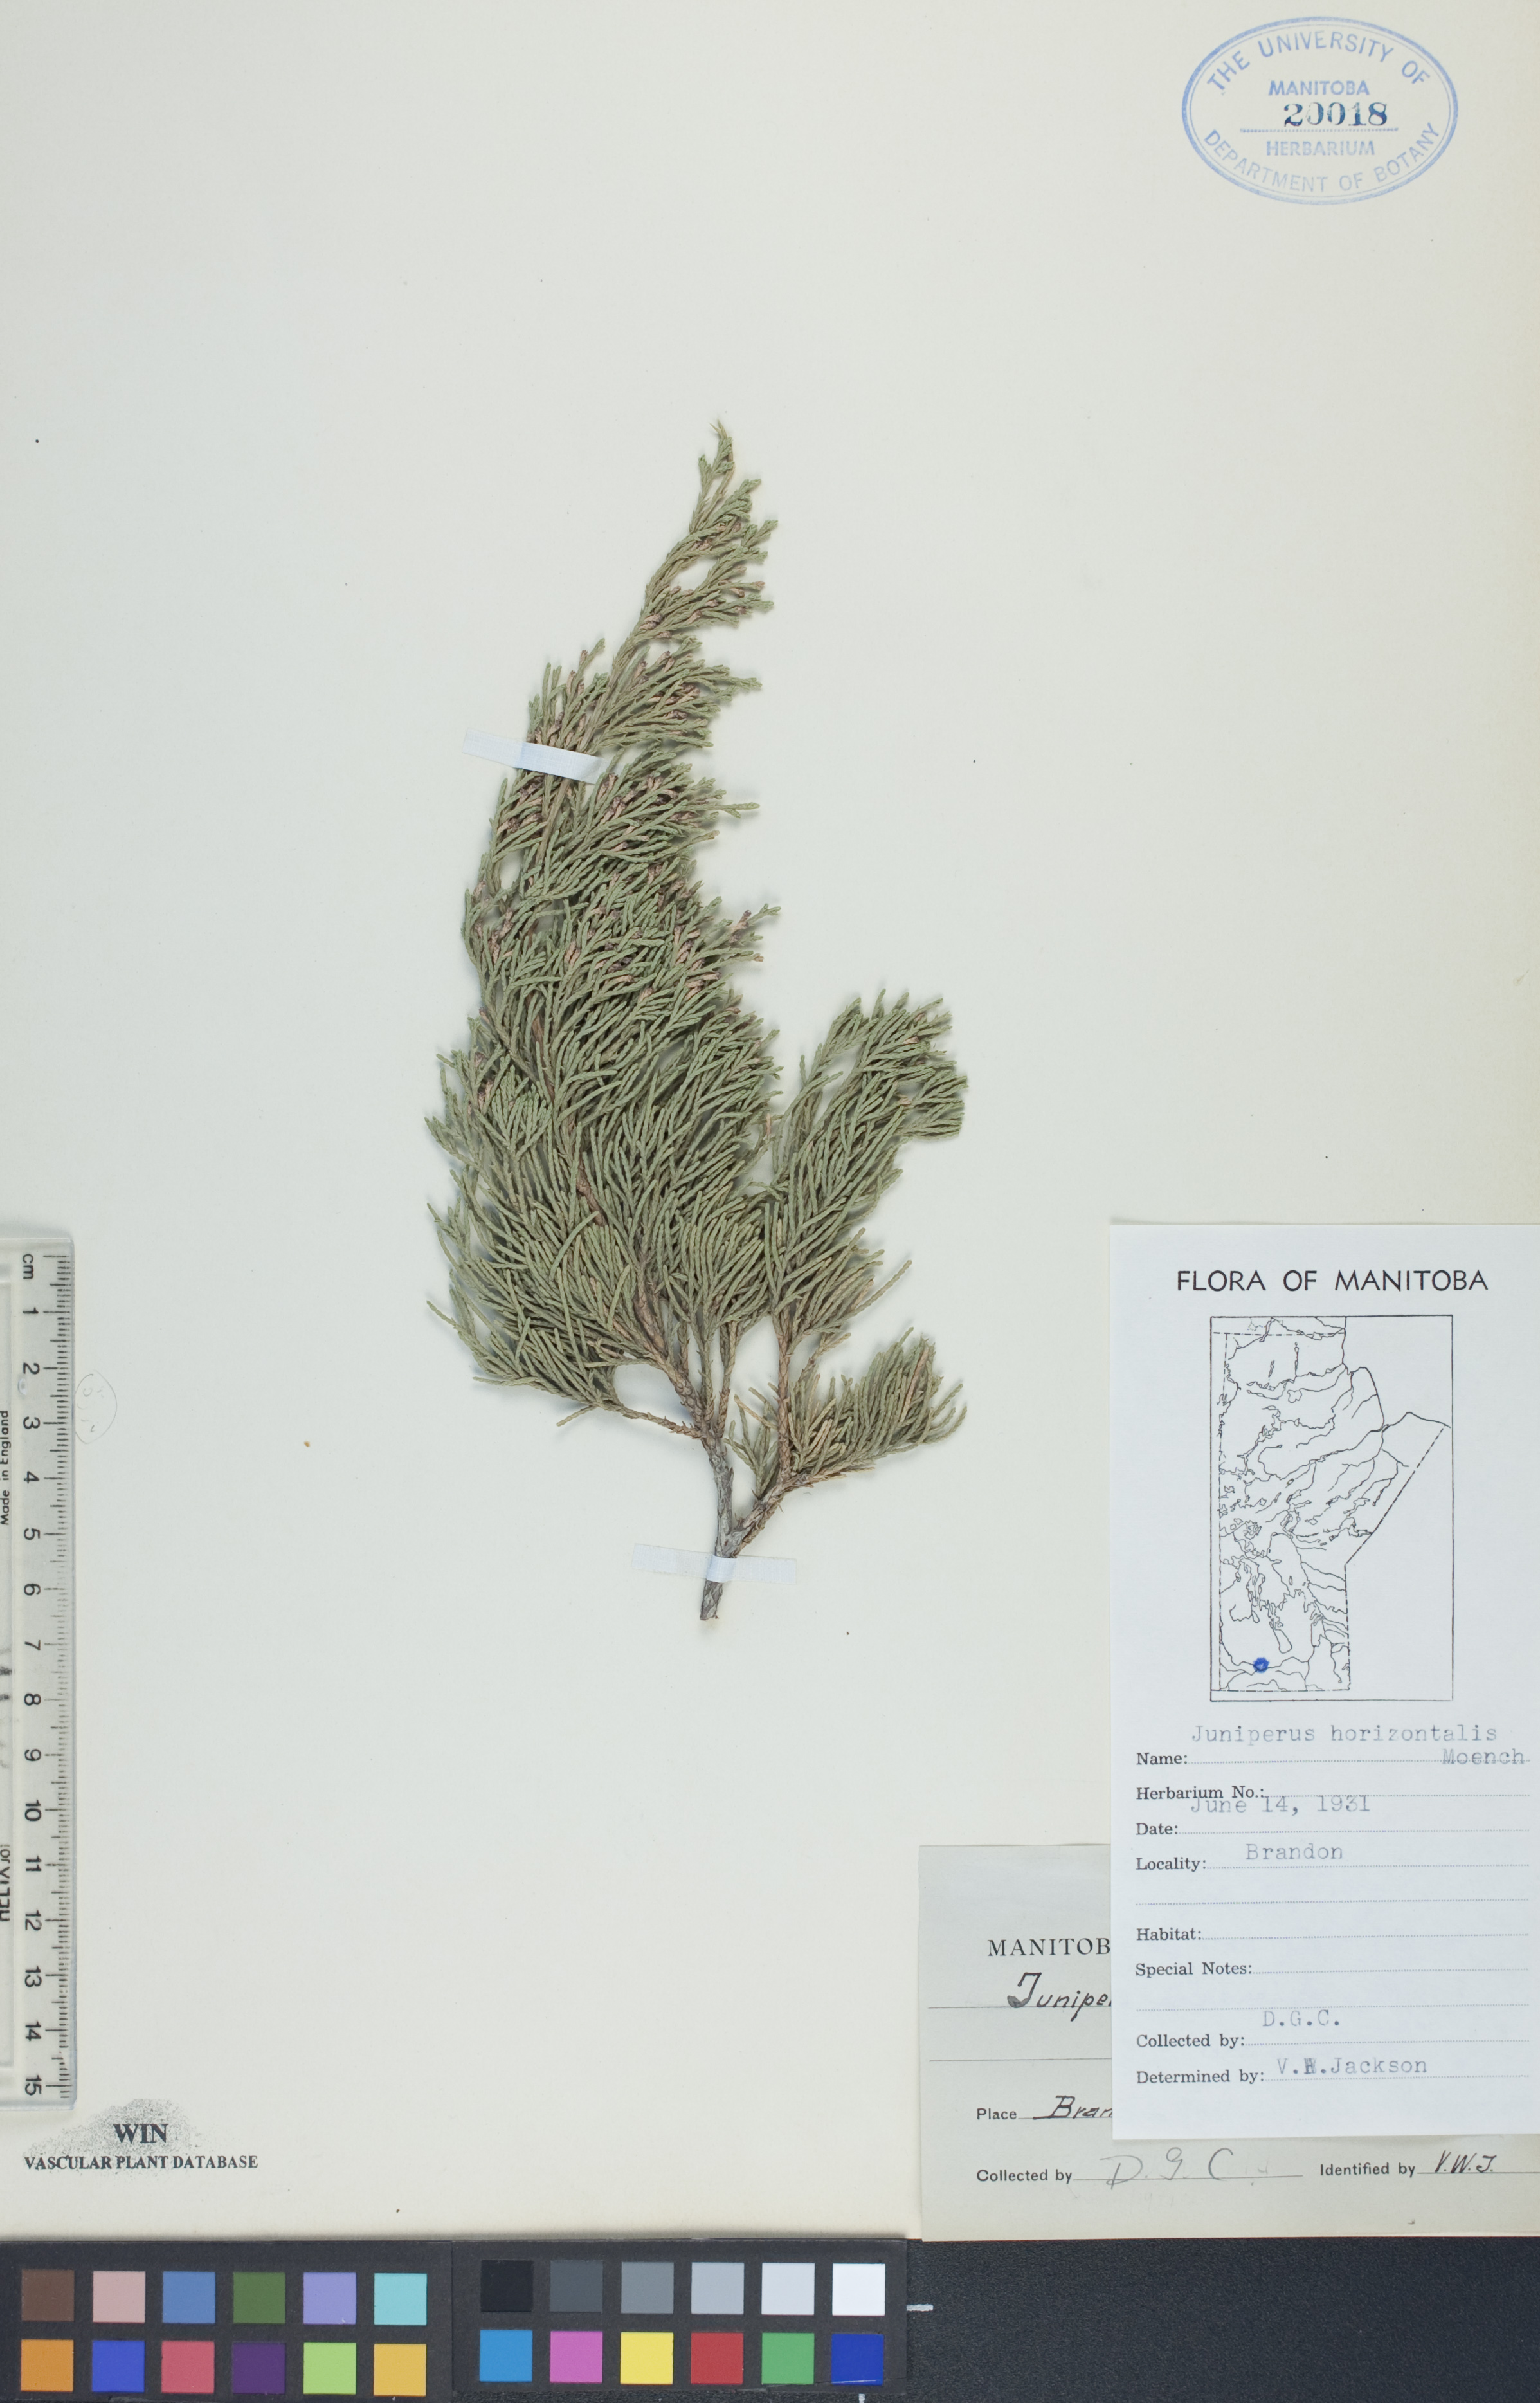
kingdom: Plantae
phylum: Tracheophyta
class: Pinopsida
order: Pinales
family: Cupressaceae
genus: Juniperus
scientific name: Juniperus horizontalis
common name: Creeping juniper
